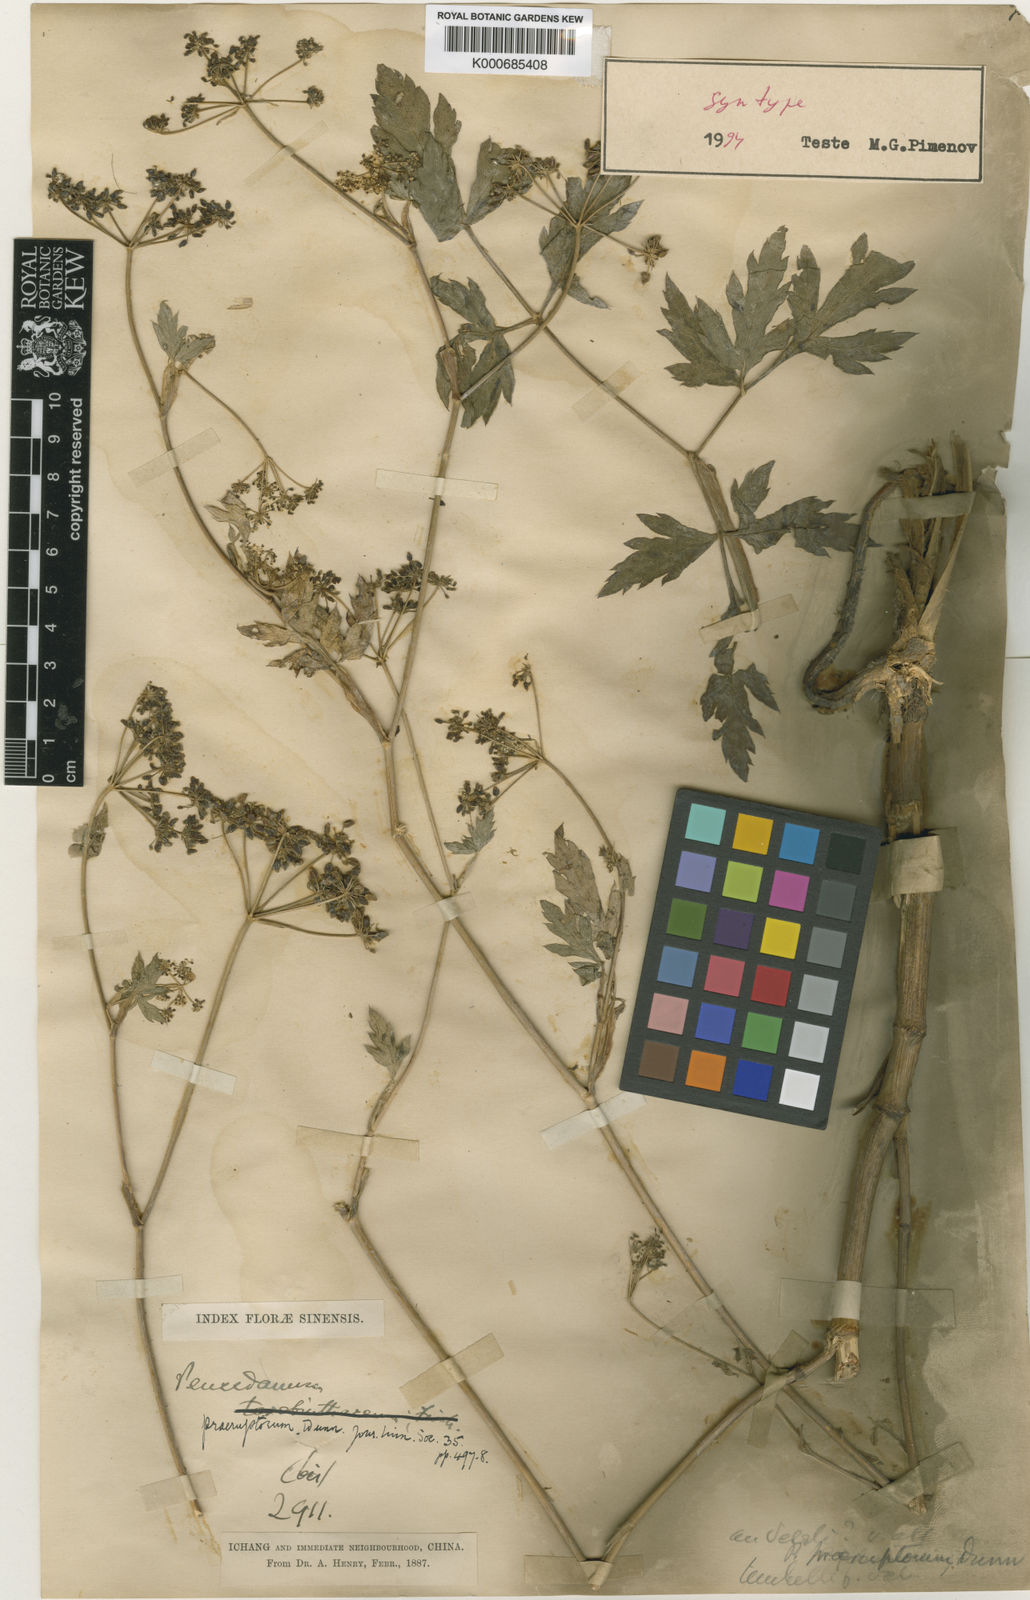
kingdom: Plantae
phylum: Tracheophyta
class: Magnoliopsida
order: Apiales
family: Apiaceae
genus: Kitagawia
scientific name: Kitagawia praeruptora
